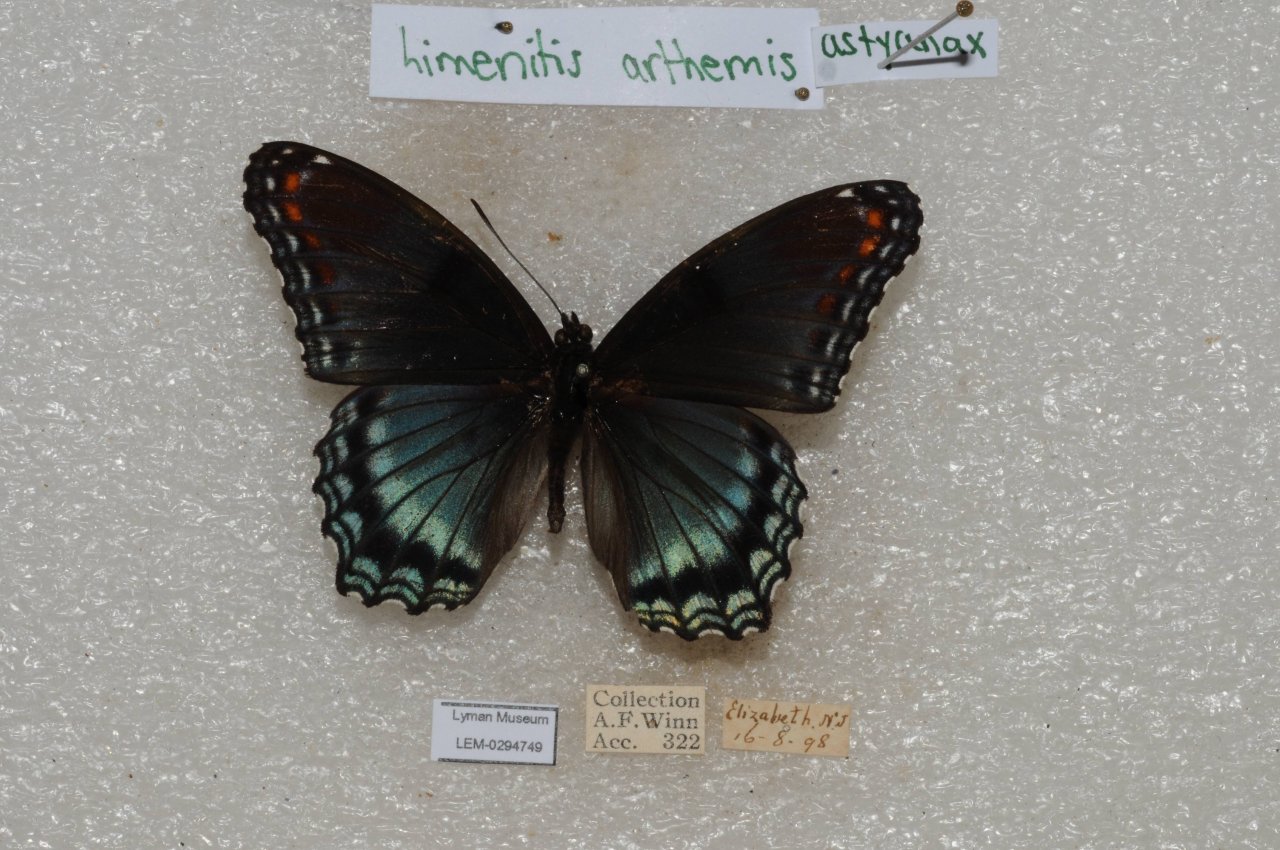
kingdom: Animalia
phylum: Arthropoda
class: Insecta
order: Lepidoptera
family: Nymphalidae
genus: Limenitis
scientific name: Limenitis astyanax
